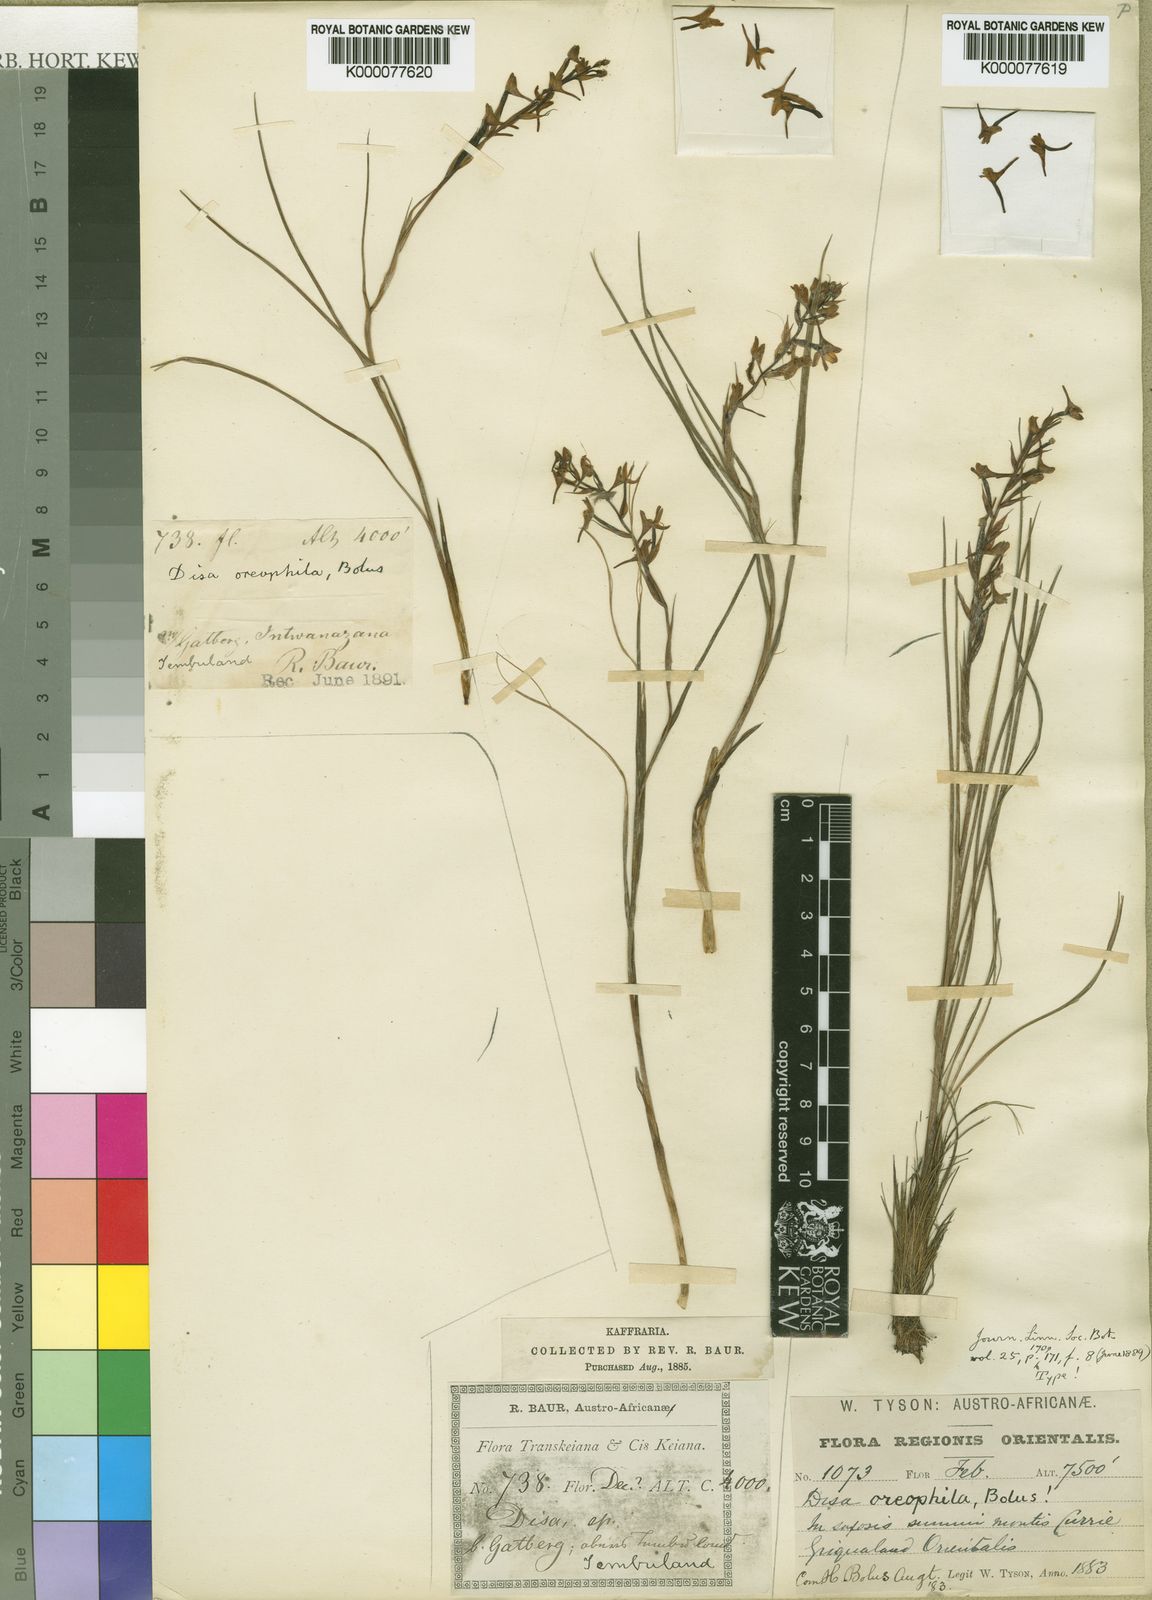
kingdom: Plantae
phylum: Tracheophyta
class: Liliopsida
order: Asparagales
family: Orchidaceae
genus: Disa
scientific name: Disa oreophila
